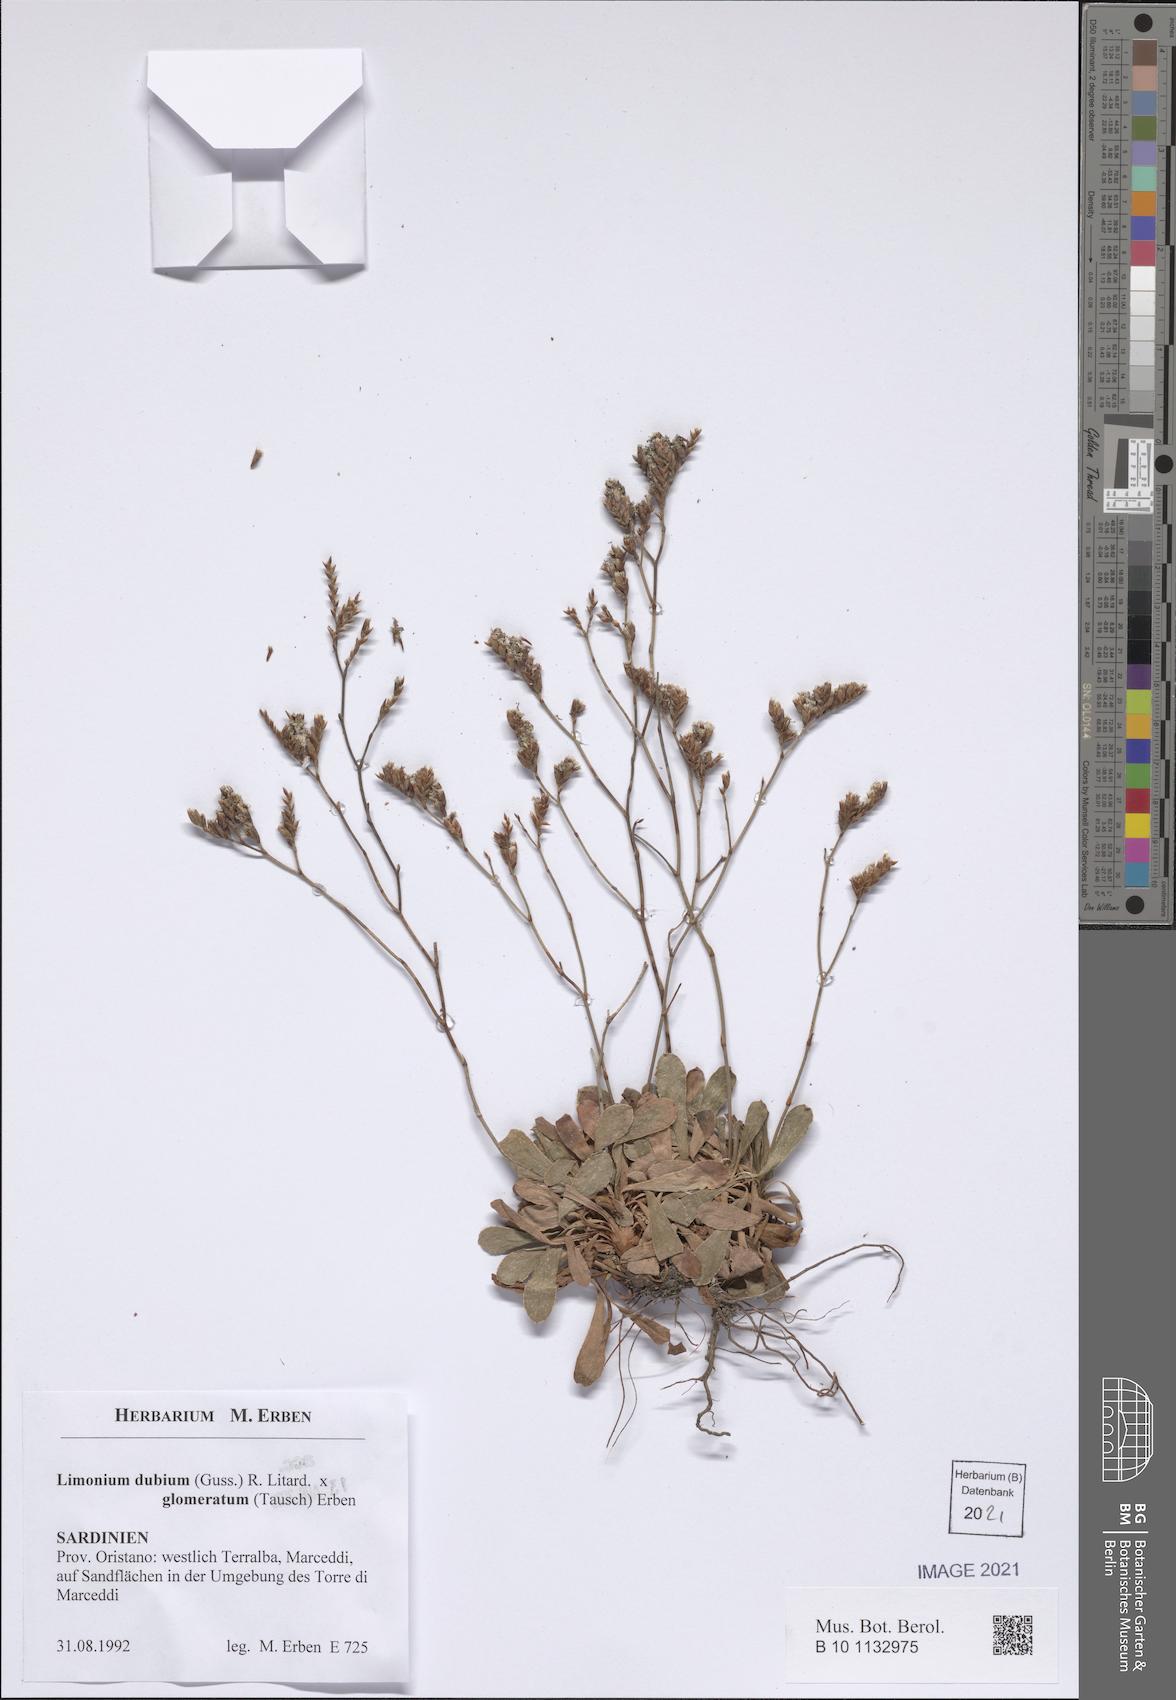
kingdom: Plantae
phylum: Tracheophyta
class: Magnoliopsida
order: Caryophyllales
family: Plumbaginaceae
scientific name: Plumbaginaceae
